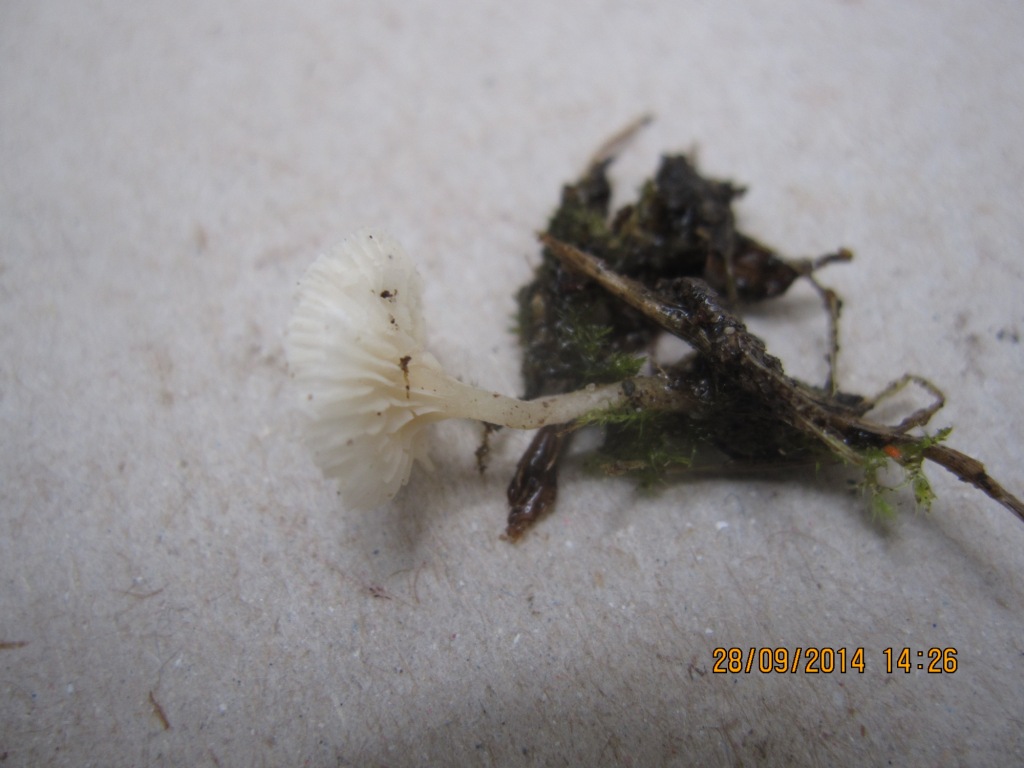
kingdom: Fungi
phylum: Basidiomycota
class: Agaricomycetes
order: Agaricales
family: Entolomataceae
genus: Clitopilus
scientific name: Clitopilus scyphoides
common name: spinkel melhat
